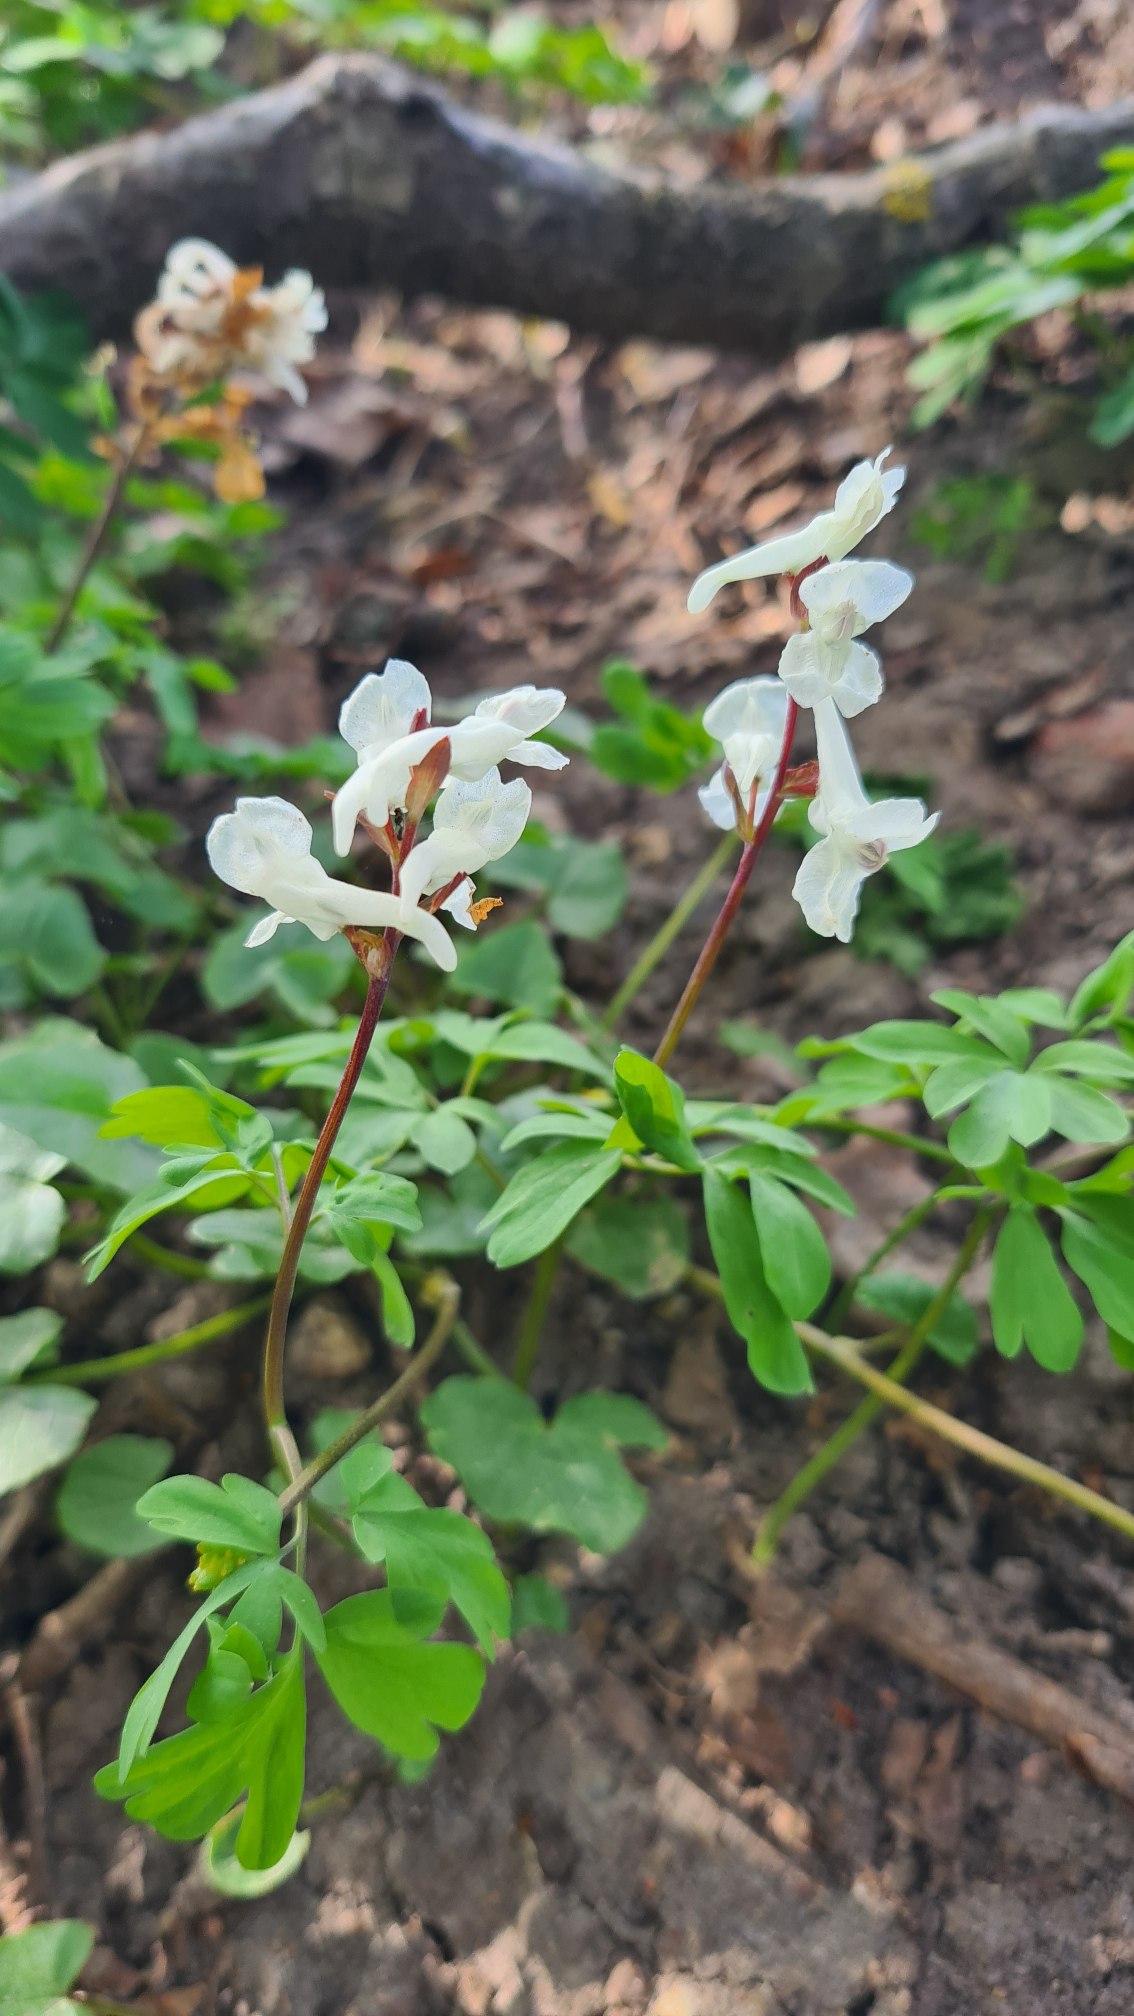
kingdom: Plantae
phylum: Tracheophyta
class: Magnoliopsida
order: Ranunculales
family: Papaveraceae
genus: Corydalis
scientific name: Corydalis cava
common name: Hulrodet lærkespore
